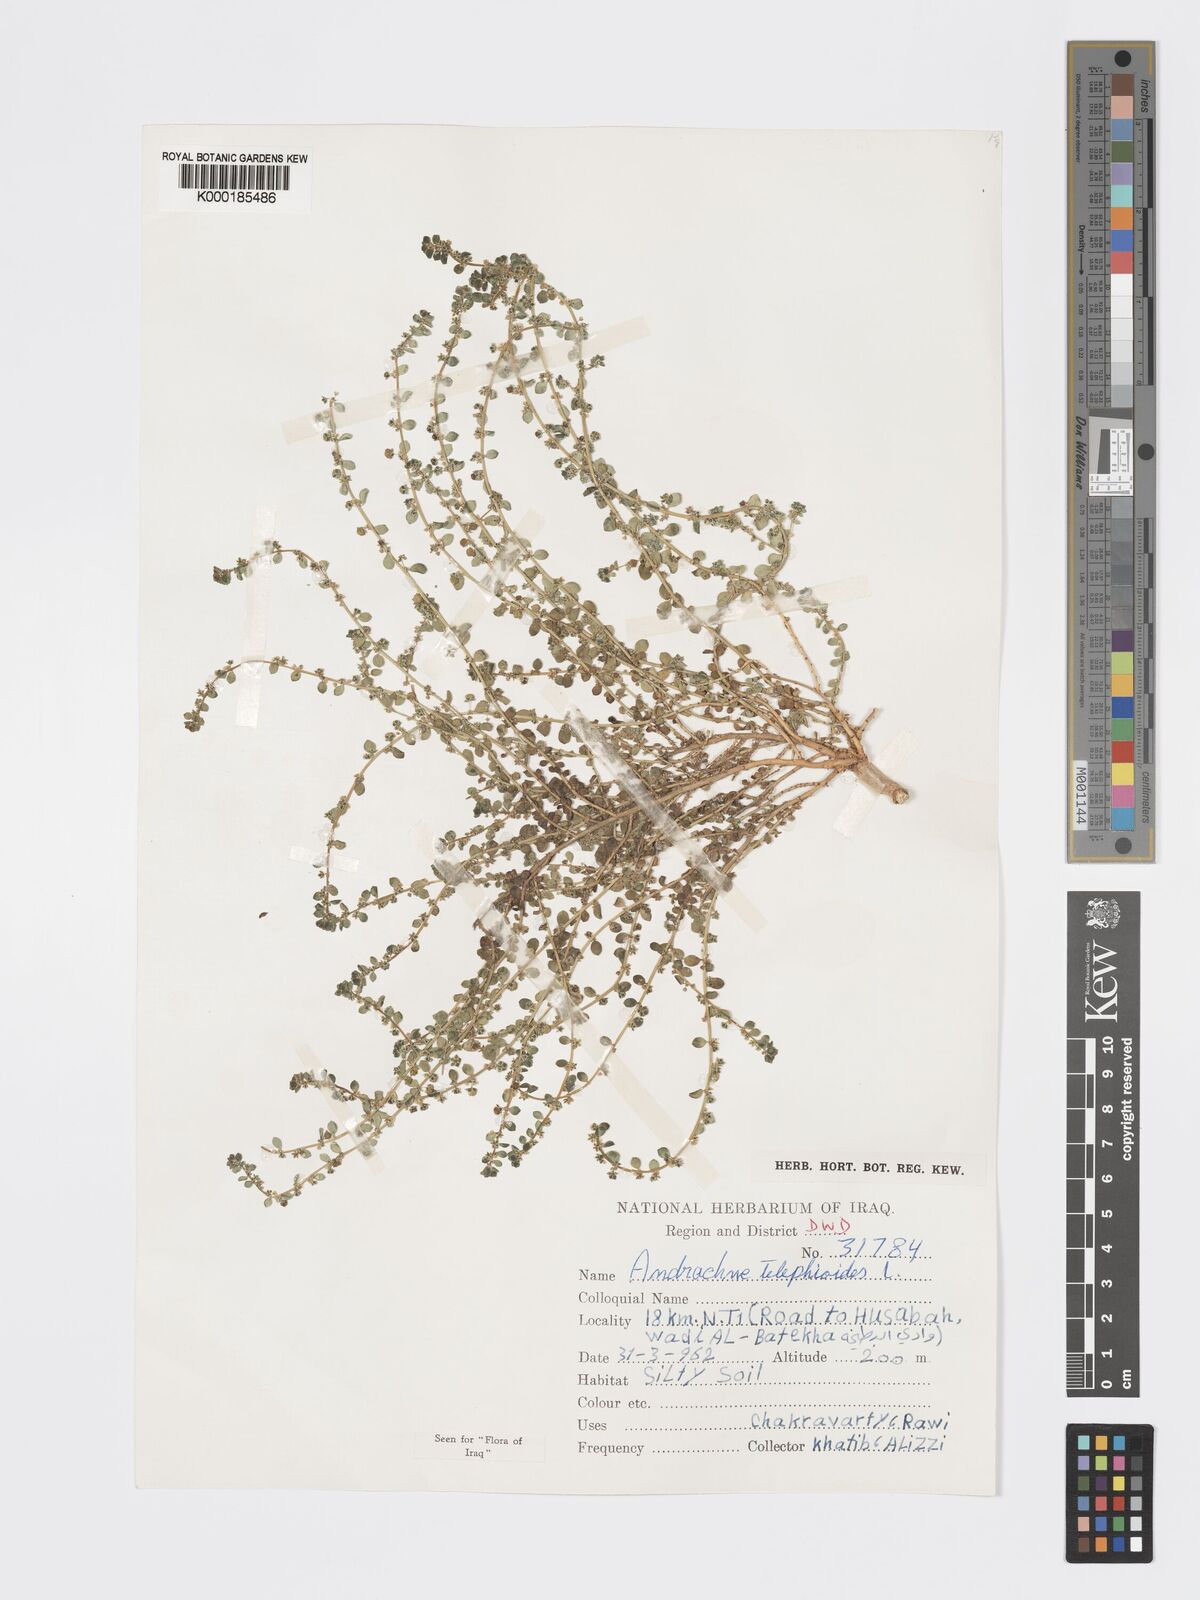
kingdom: Plantae
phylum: Tracheophyta
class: Magnoliopsida
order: Malpighiales
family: Phyllanthaceae
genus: Andrachne
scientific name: Andrachne telephioides
